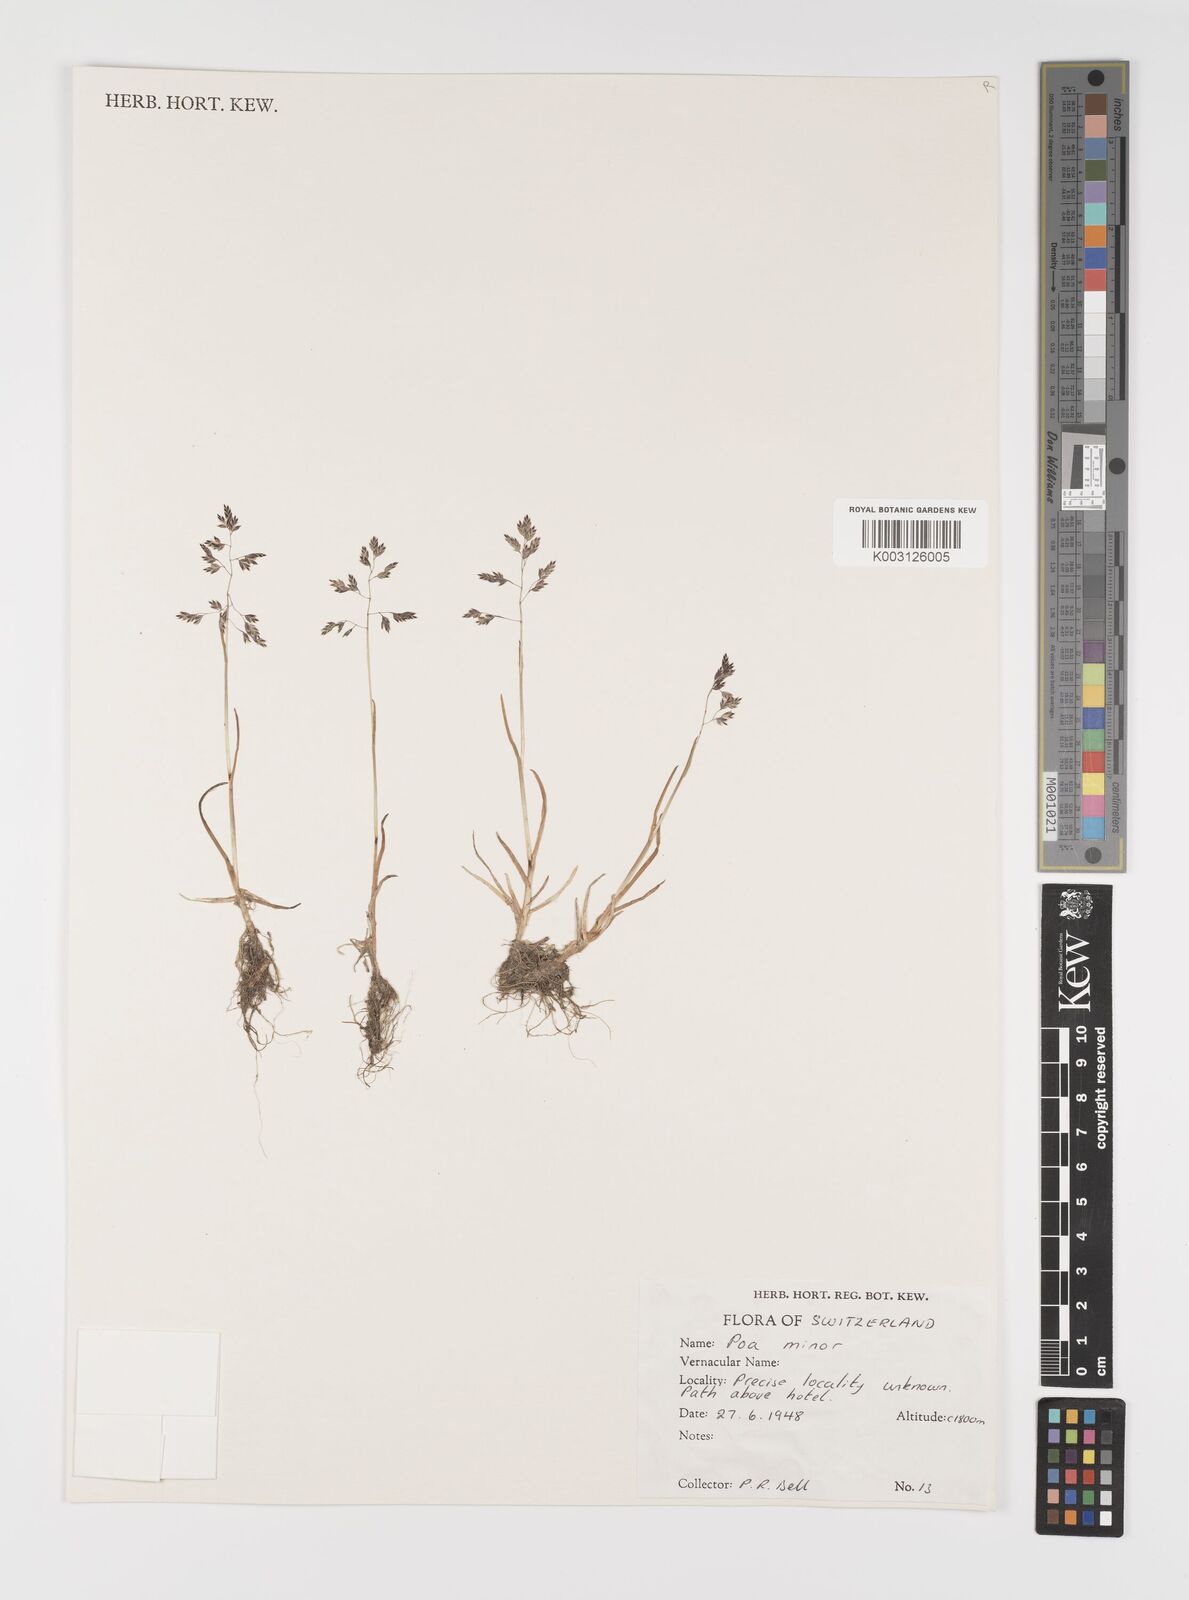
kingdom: Plantae
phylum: Tracheophyta
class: Liliopsida
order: Poales
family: Poaceae
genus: Poa
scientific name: Poa minor
